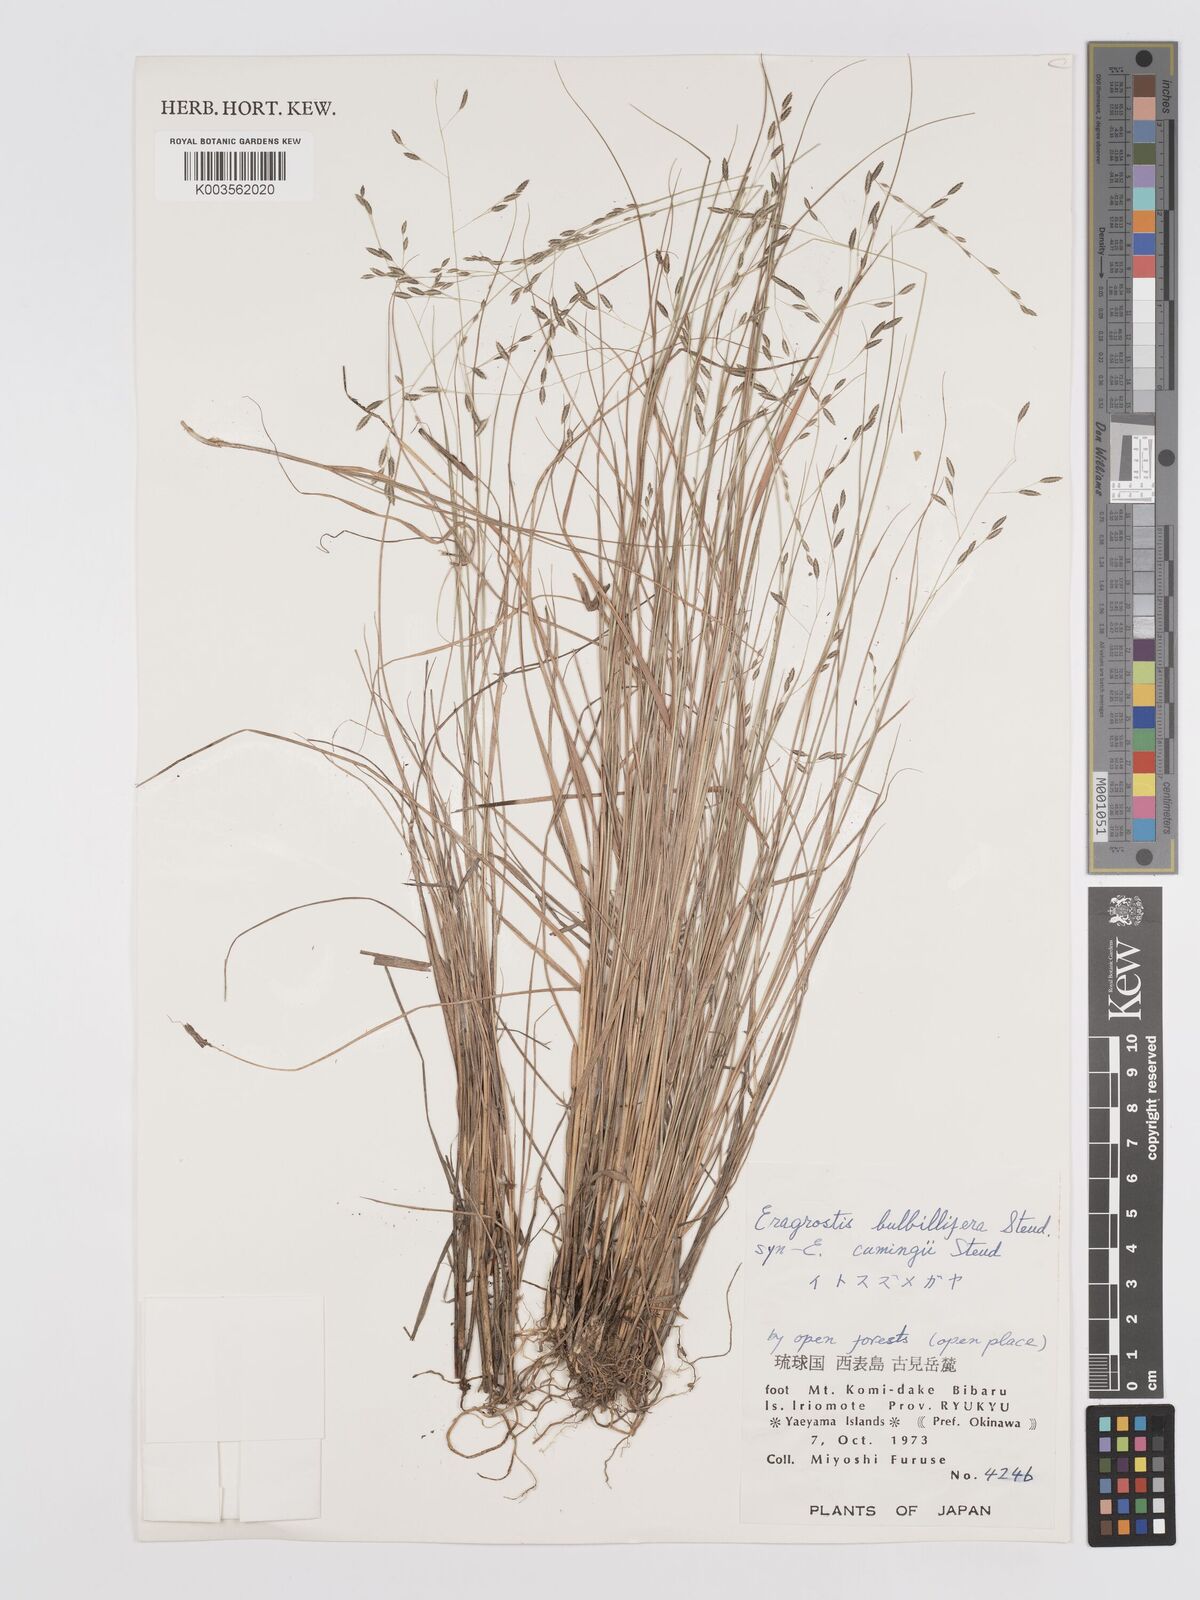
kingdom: Plantae
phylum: Tracheophyta
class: Liliopsida
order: Poales
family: Poaceae
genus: Eragrostis
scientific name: Eragrostis cumingii
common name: Cuming's lovegrass
